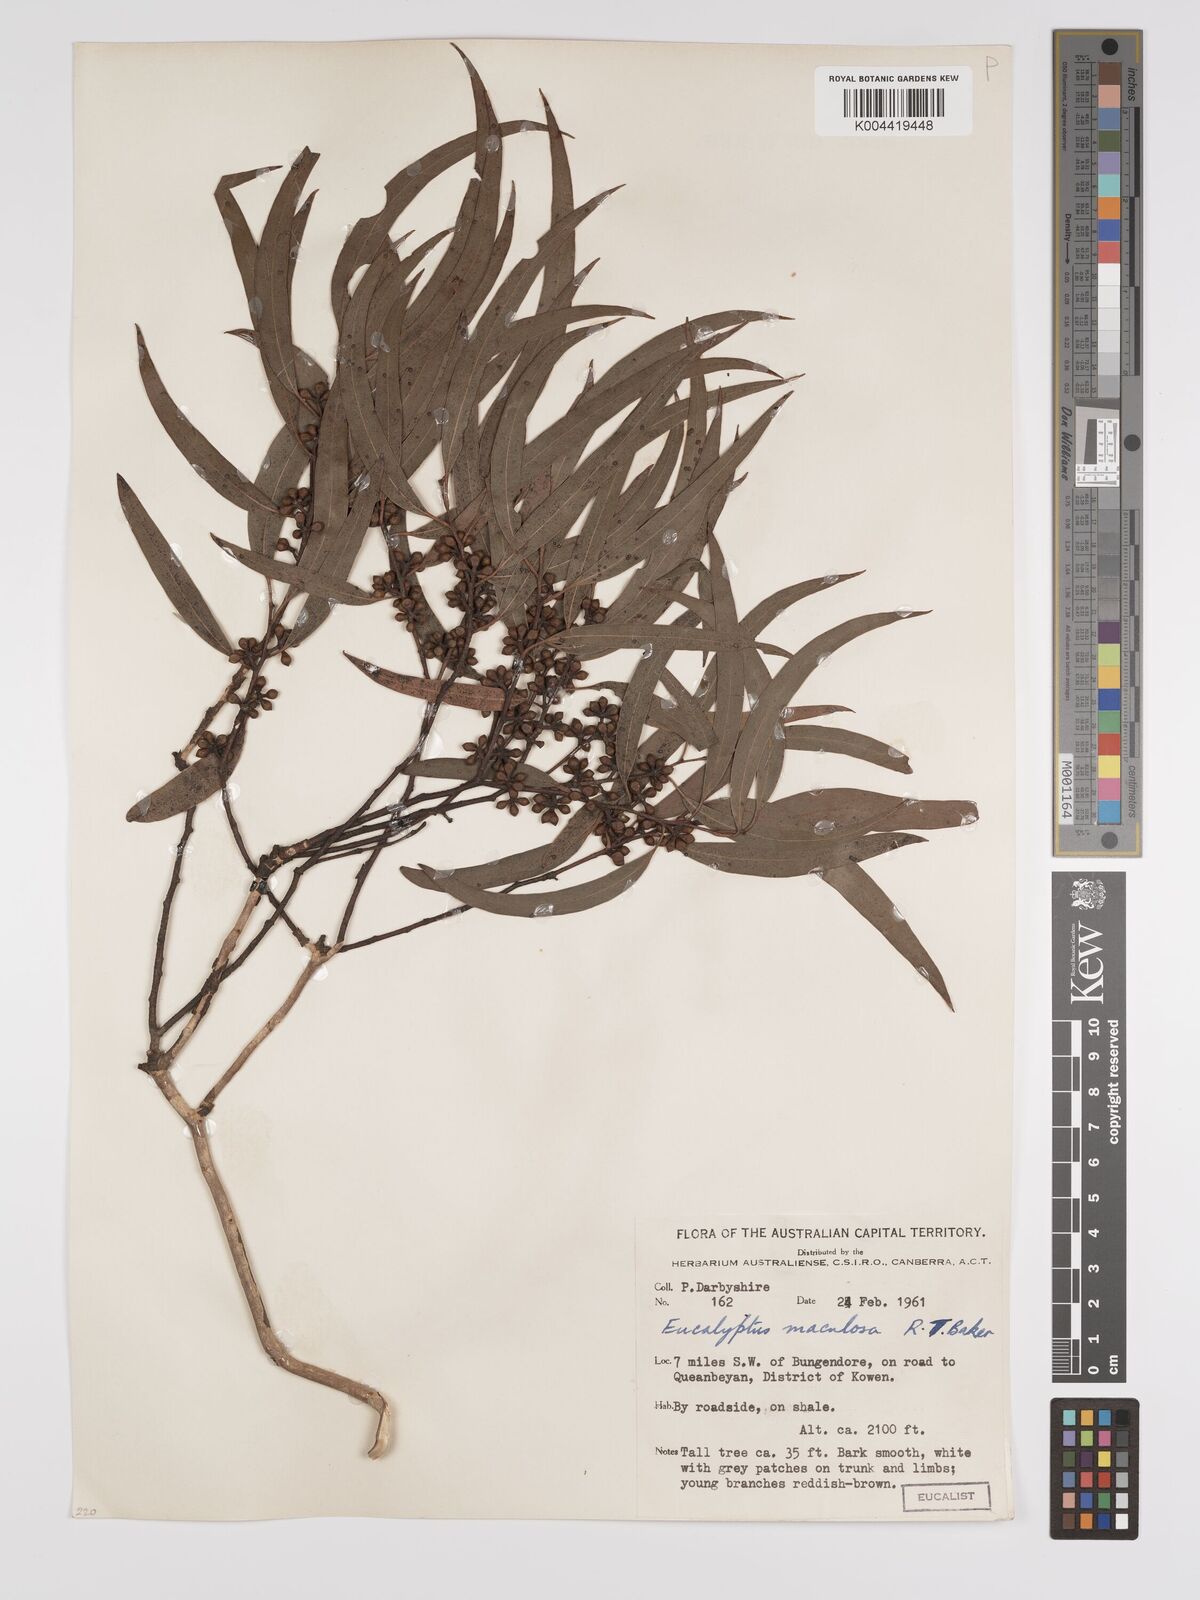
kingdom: Plantae
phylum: Tracheophyta
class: Magnoliopsida
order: Myrtales
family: Myrtaceae
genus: Eucalyptus
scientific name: Eucalyptus mannifera
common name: Manna gum
